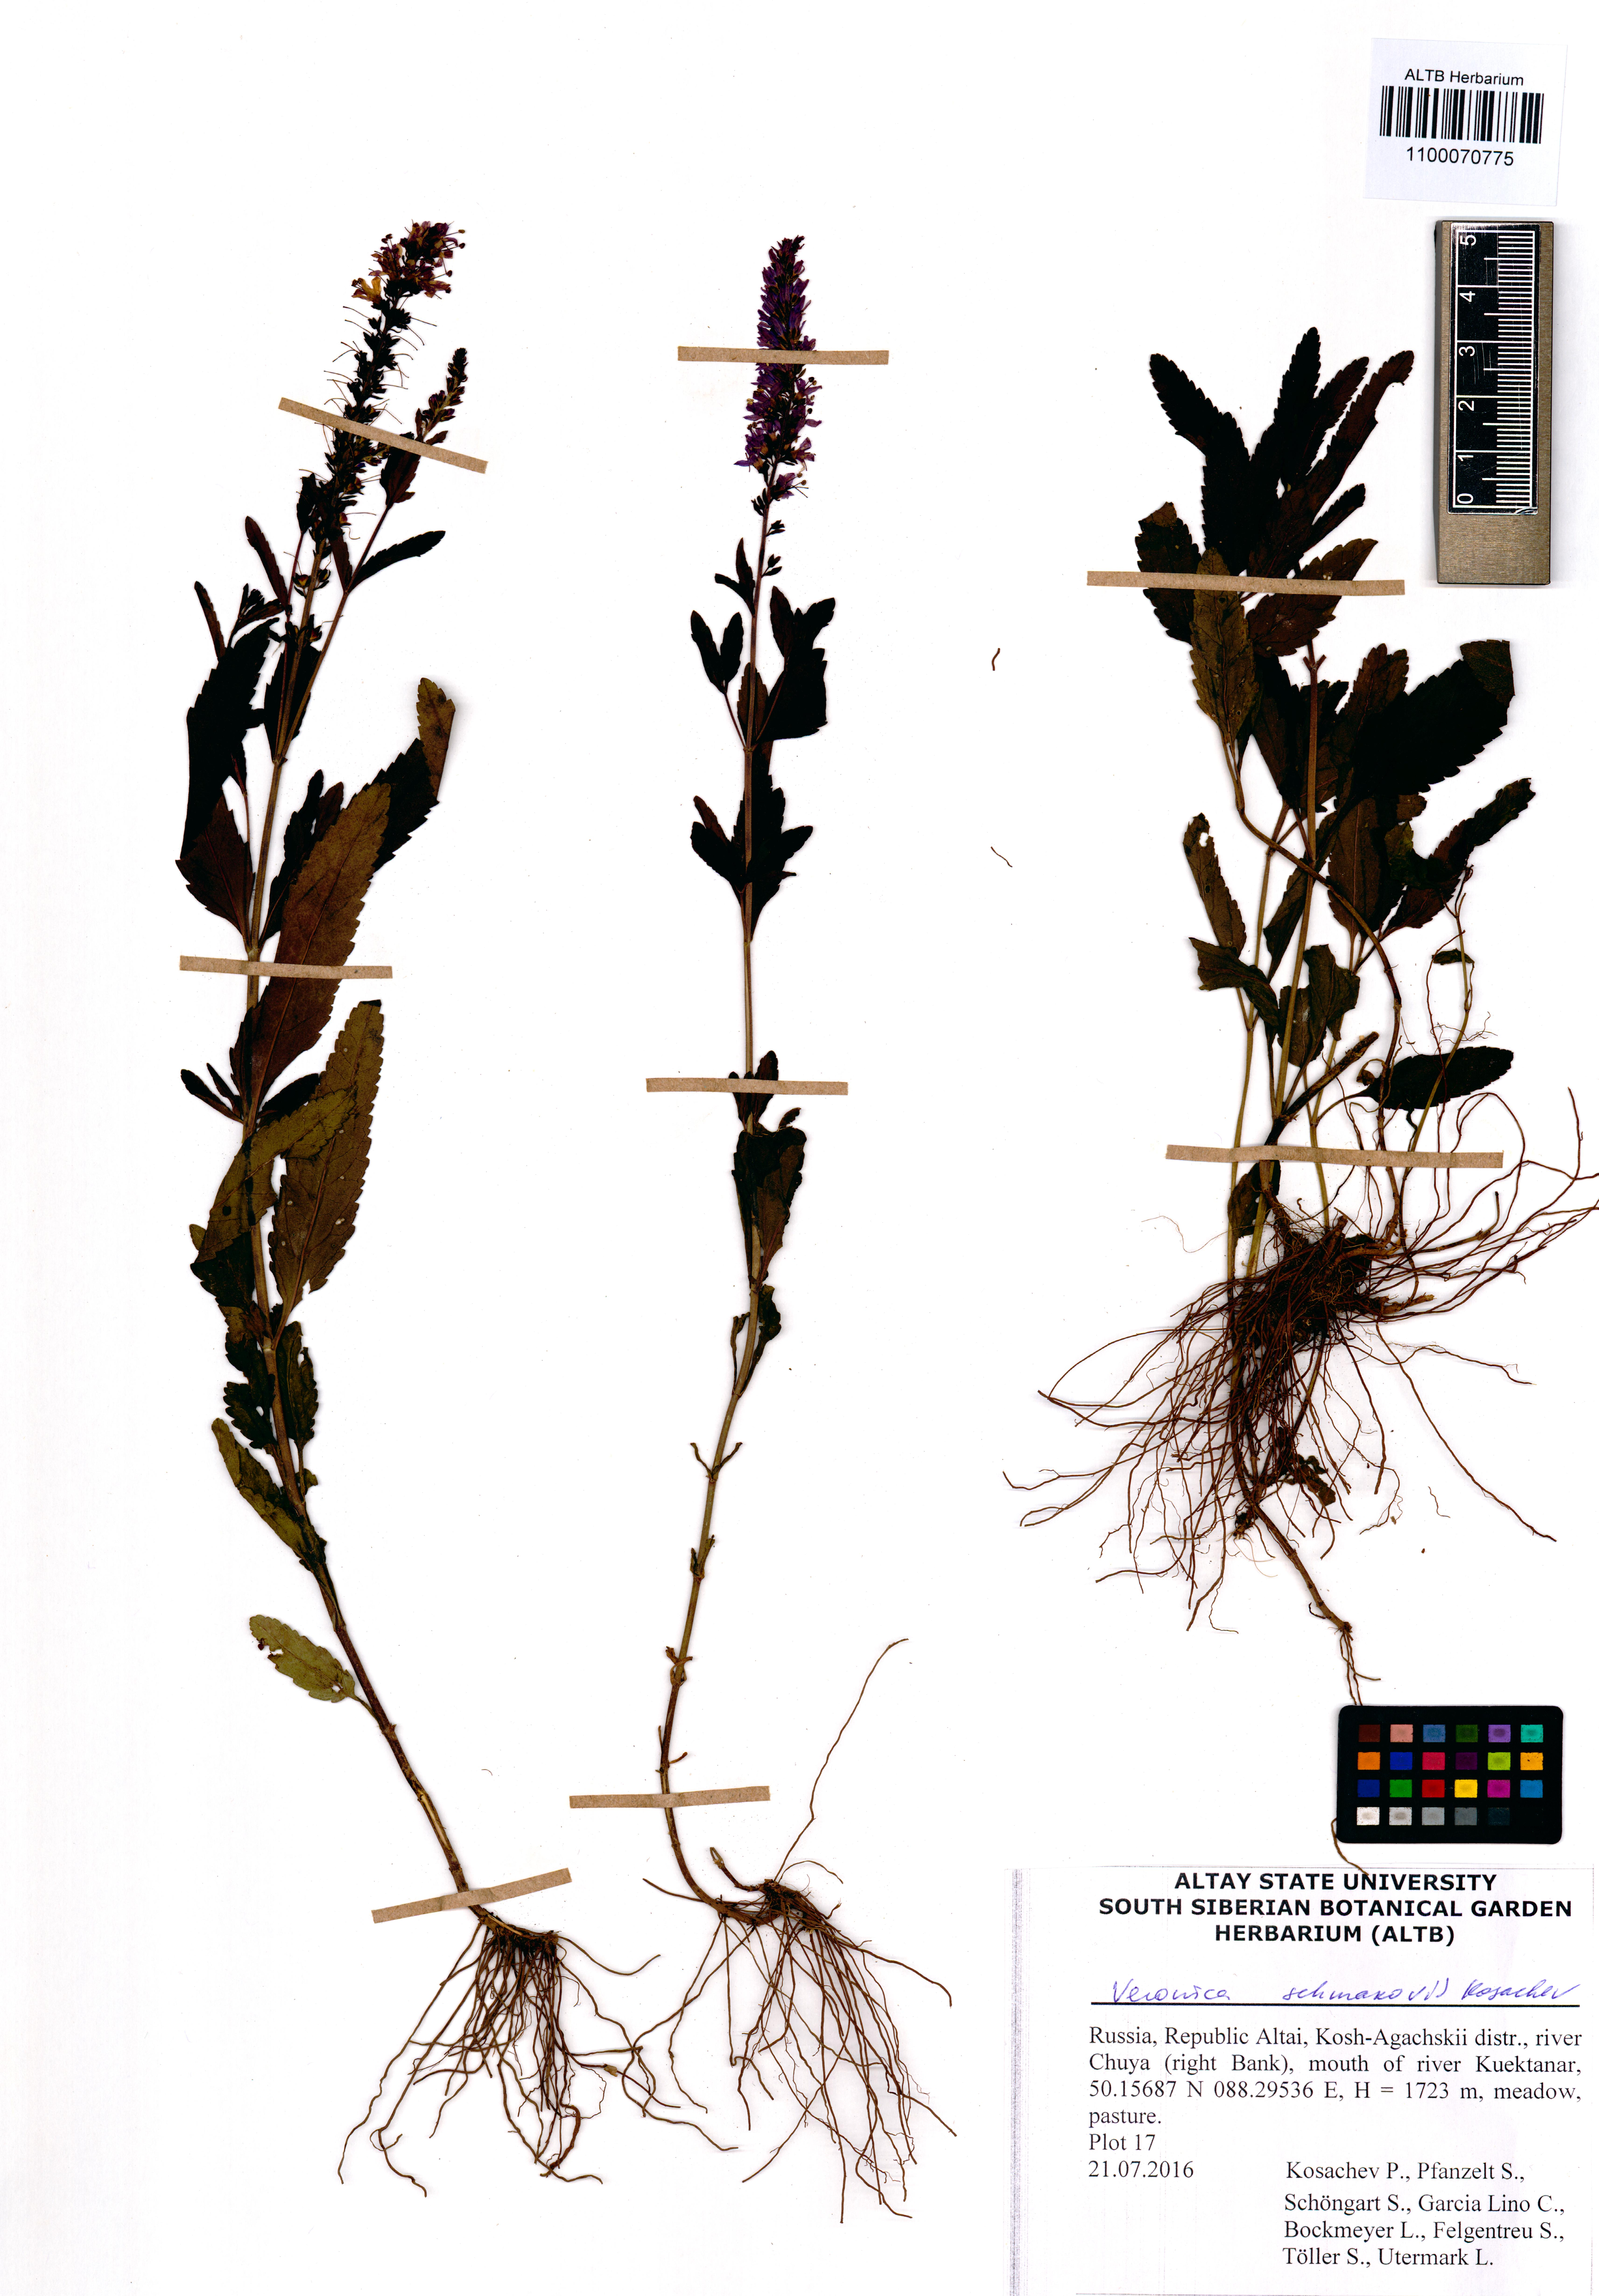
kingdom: Plantae
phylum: Tracheophyta
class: Magnoliopsida
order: Lamiales
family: Plantaginaceae
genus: Veronica
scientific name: Veronica schmakovii
